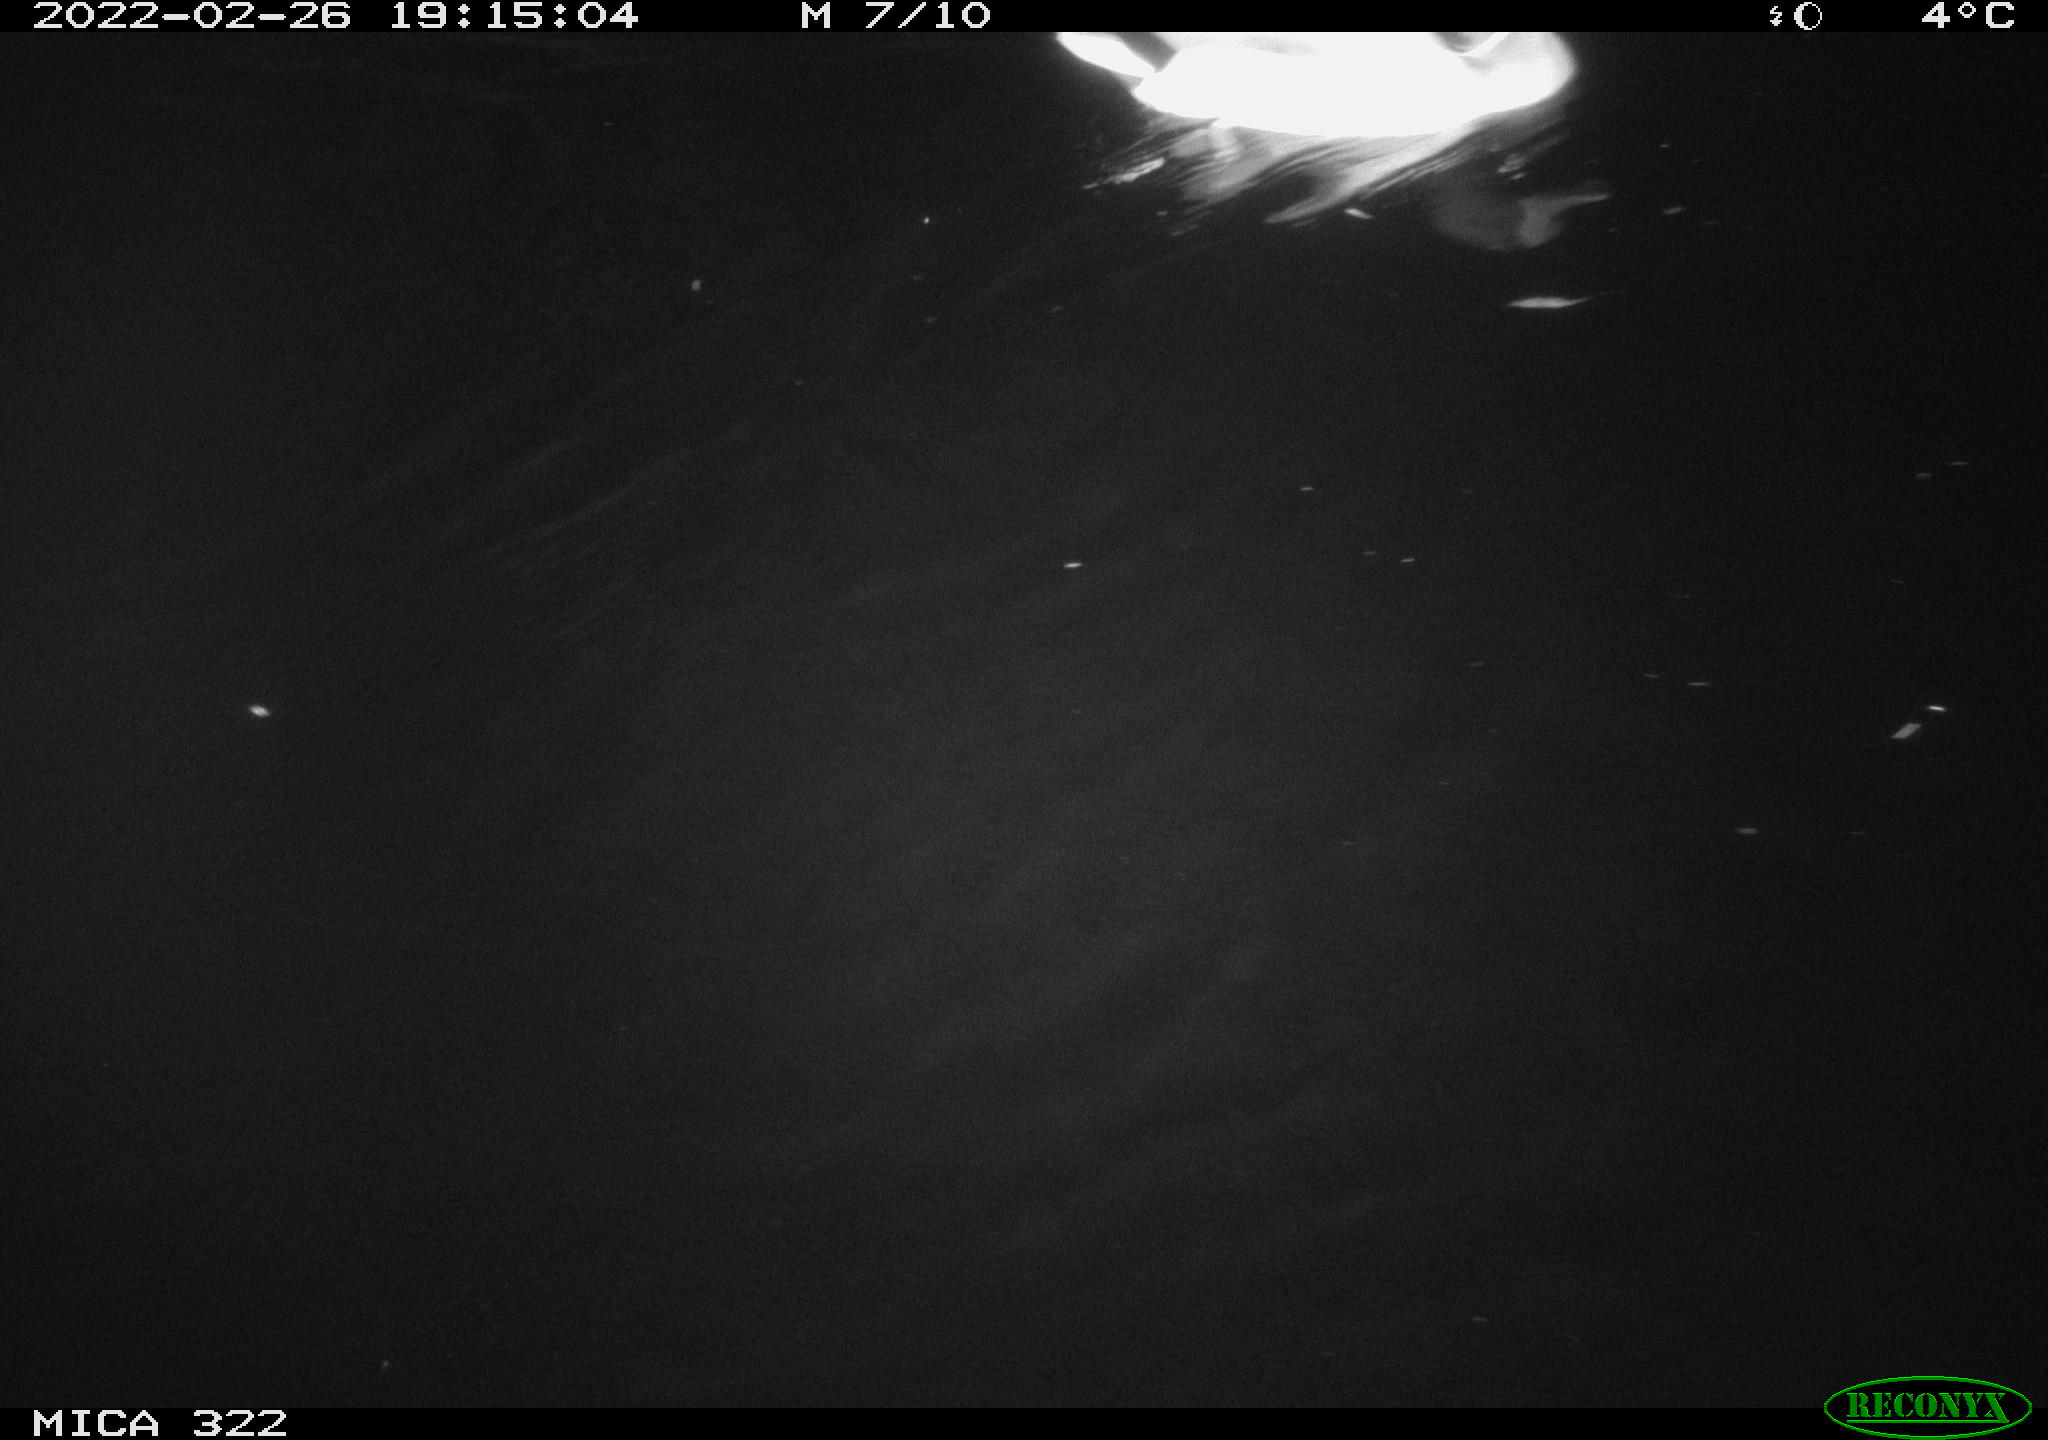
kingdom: Animalia
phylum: Chordata
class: Aves
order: Anseriformes
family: Anatidae
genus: Anas
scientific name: Anas platyrhynchos
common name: Mallard
